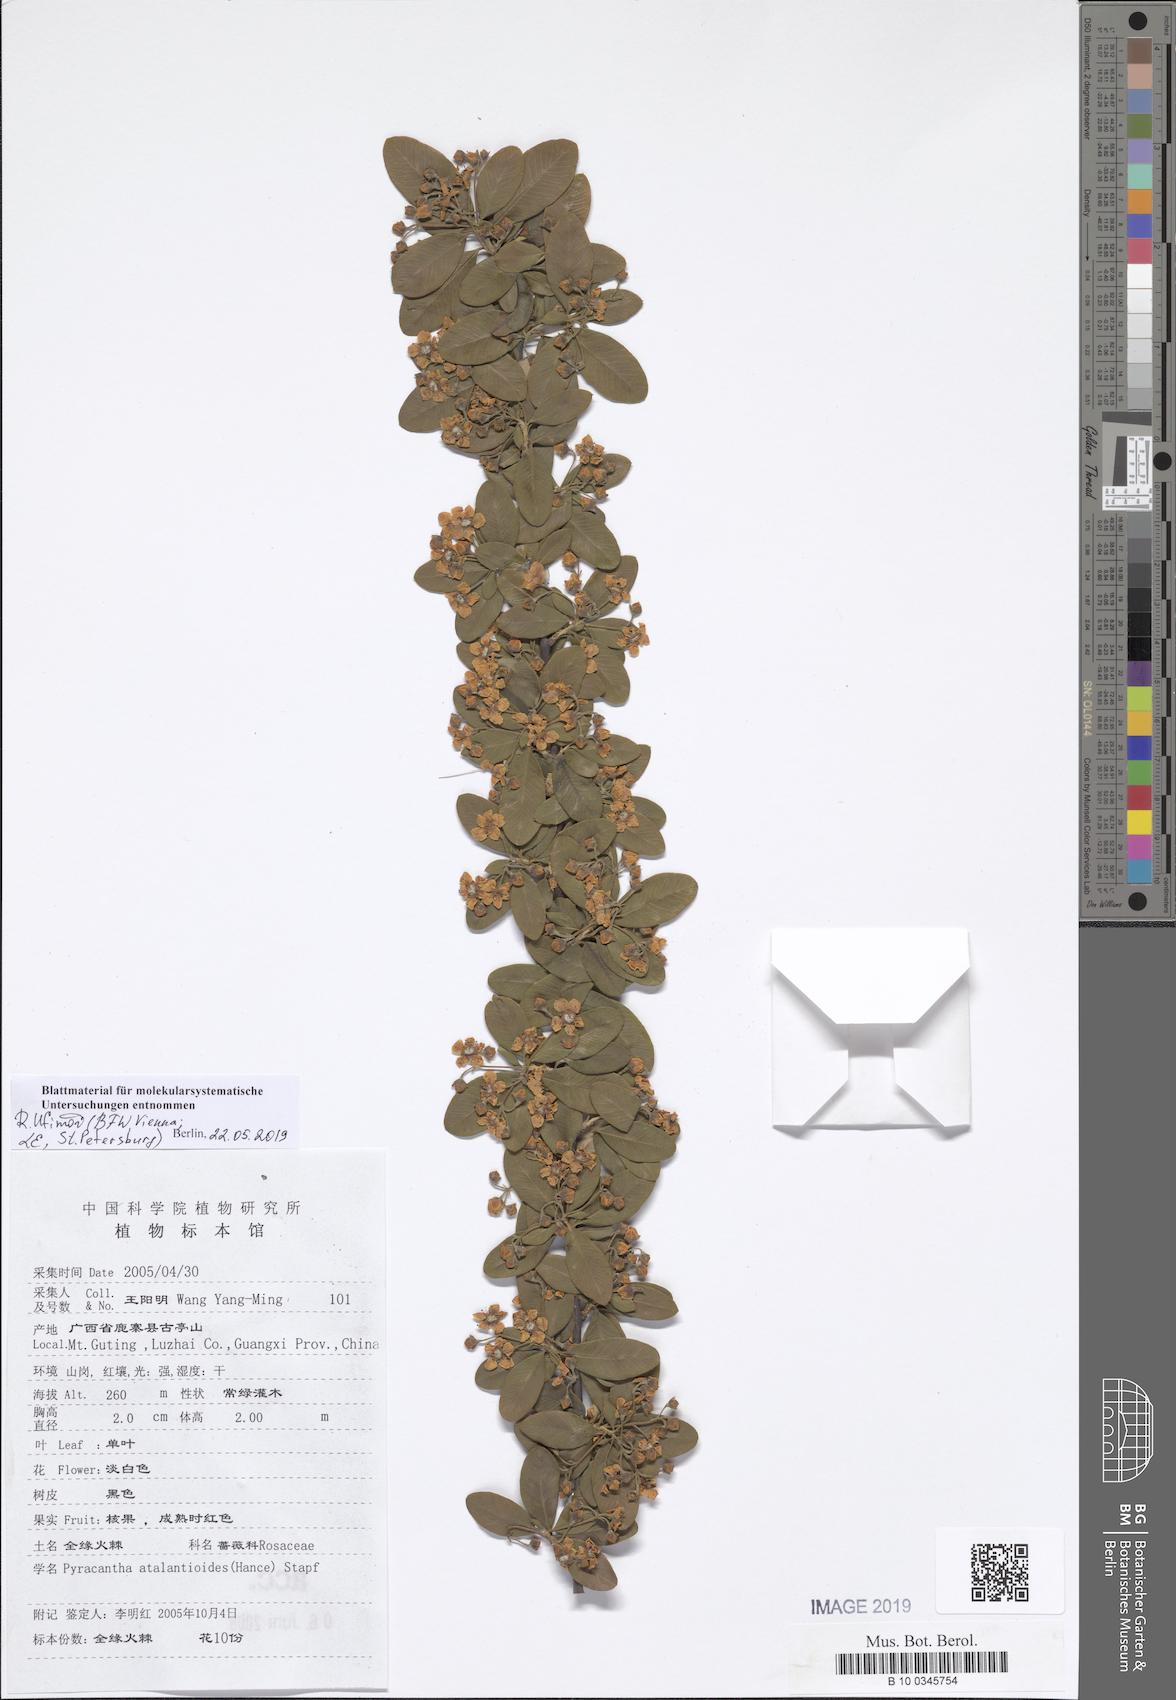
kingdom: Plantae
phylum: Tracheophyta
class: Magnoliopsida
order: Rosales
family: Rosaceae
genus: Pyracantha
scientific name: Pyracantha atalantioides
